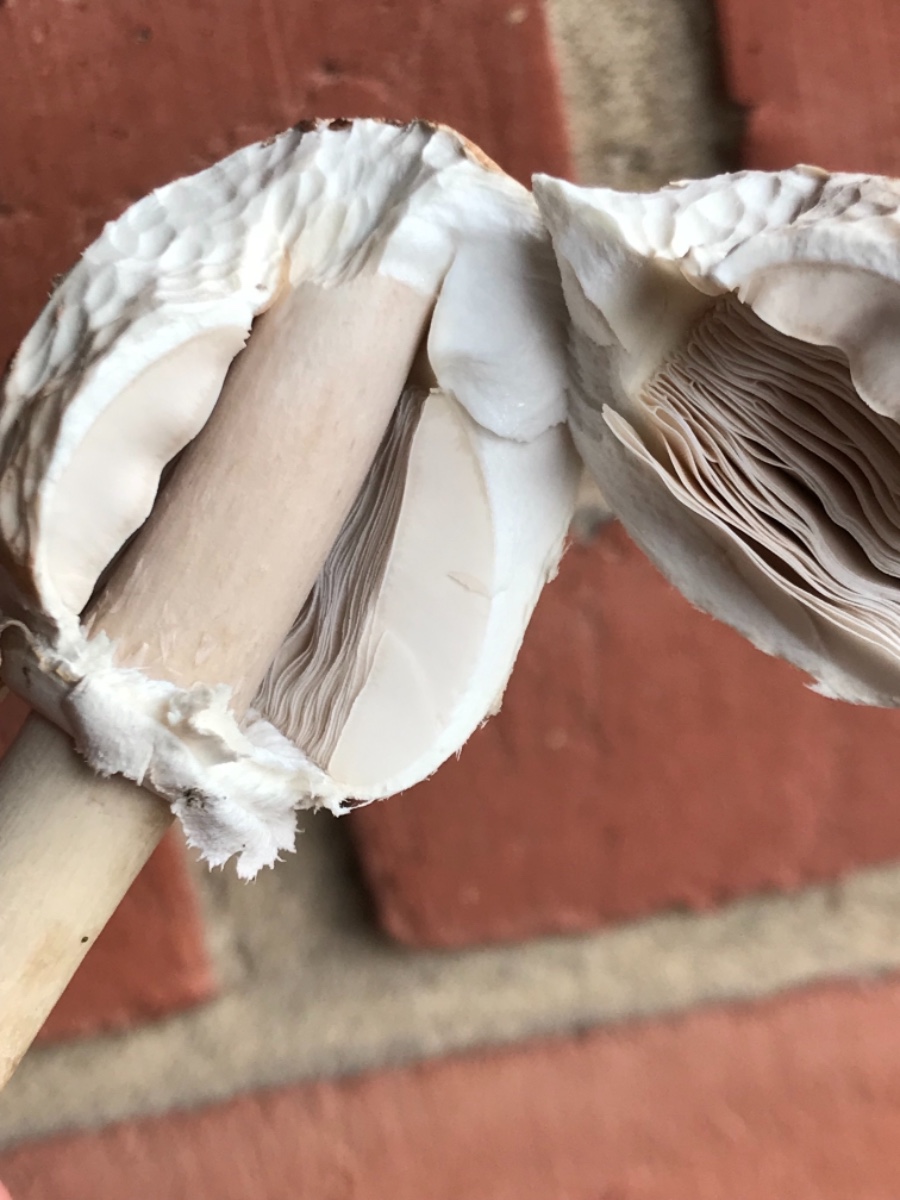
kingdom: Fungi
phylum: Basidiomycota
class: Agaricomycetes
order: Agaricales
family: Agaricaceae
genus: Macrolepiota
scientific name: Macrolepiota mastoidea
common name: puklet kæmpeparasolhat
